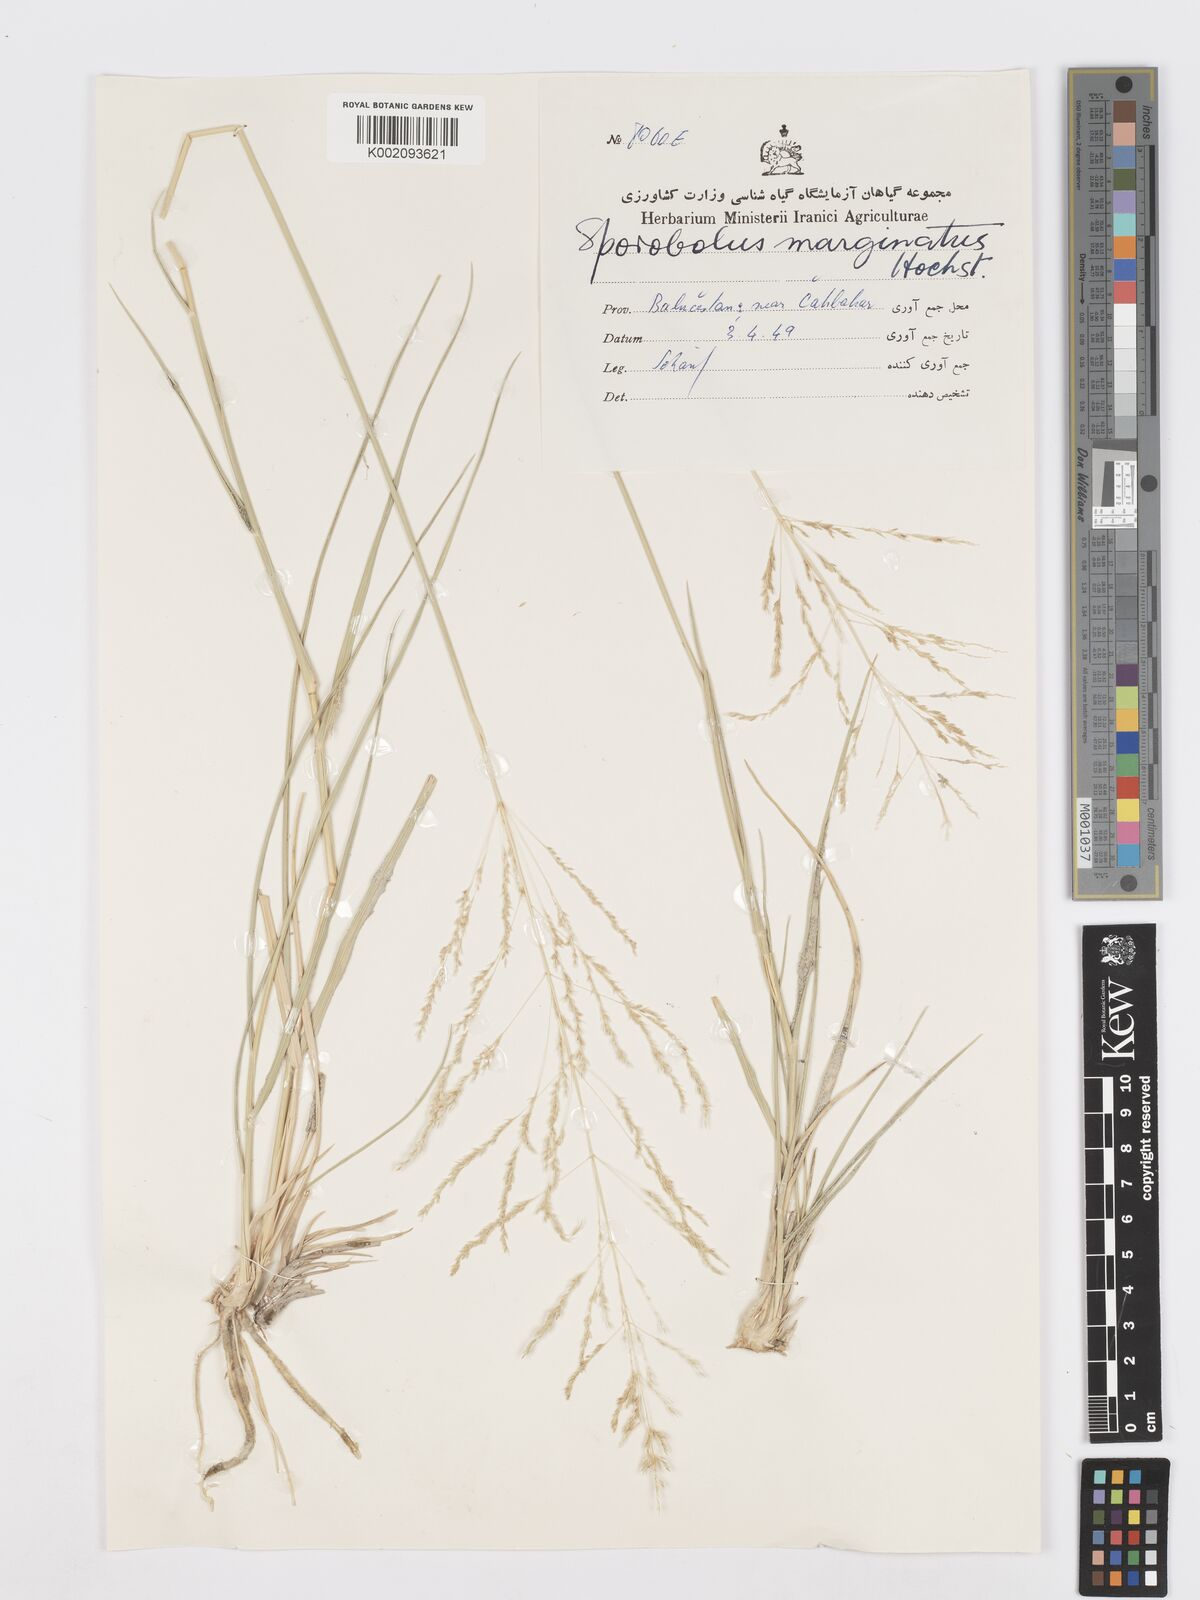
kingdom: Plantae
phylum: Tracheophyta
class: Liliopsida
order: Poales
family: Poaceae
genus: Sporobolus
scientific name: Sporobolus ioclados
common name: Pan dropseed
